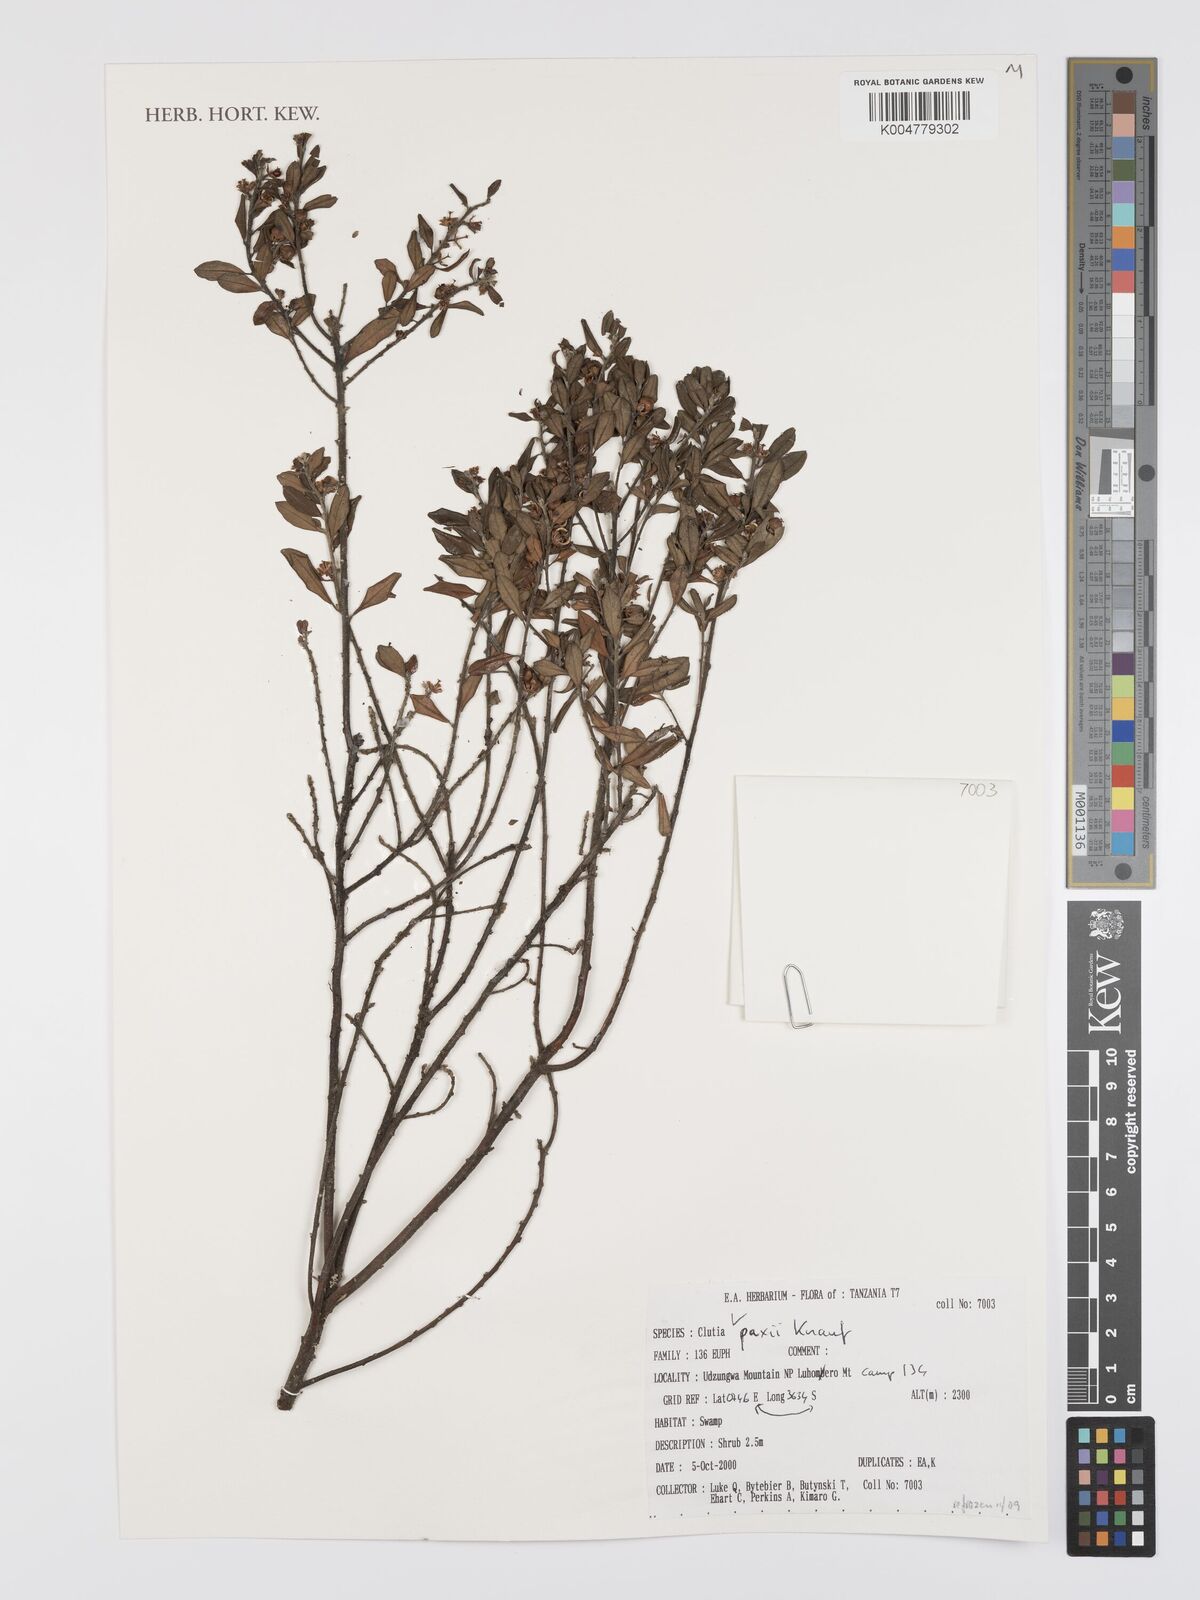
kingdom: Plantae
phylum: Tracheophyta
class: Magnoliopsida
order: Malpighiales
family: Peraceae
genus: Clutia
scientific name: Clutia paxii
